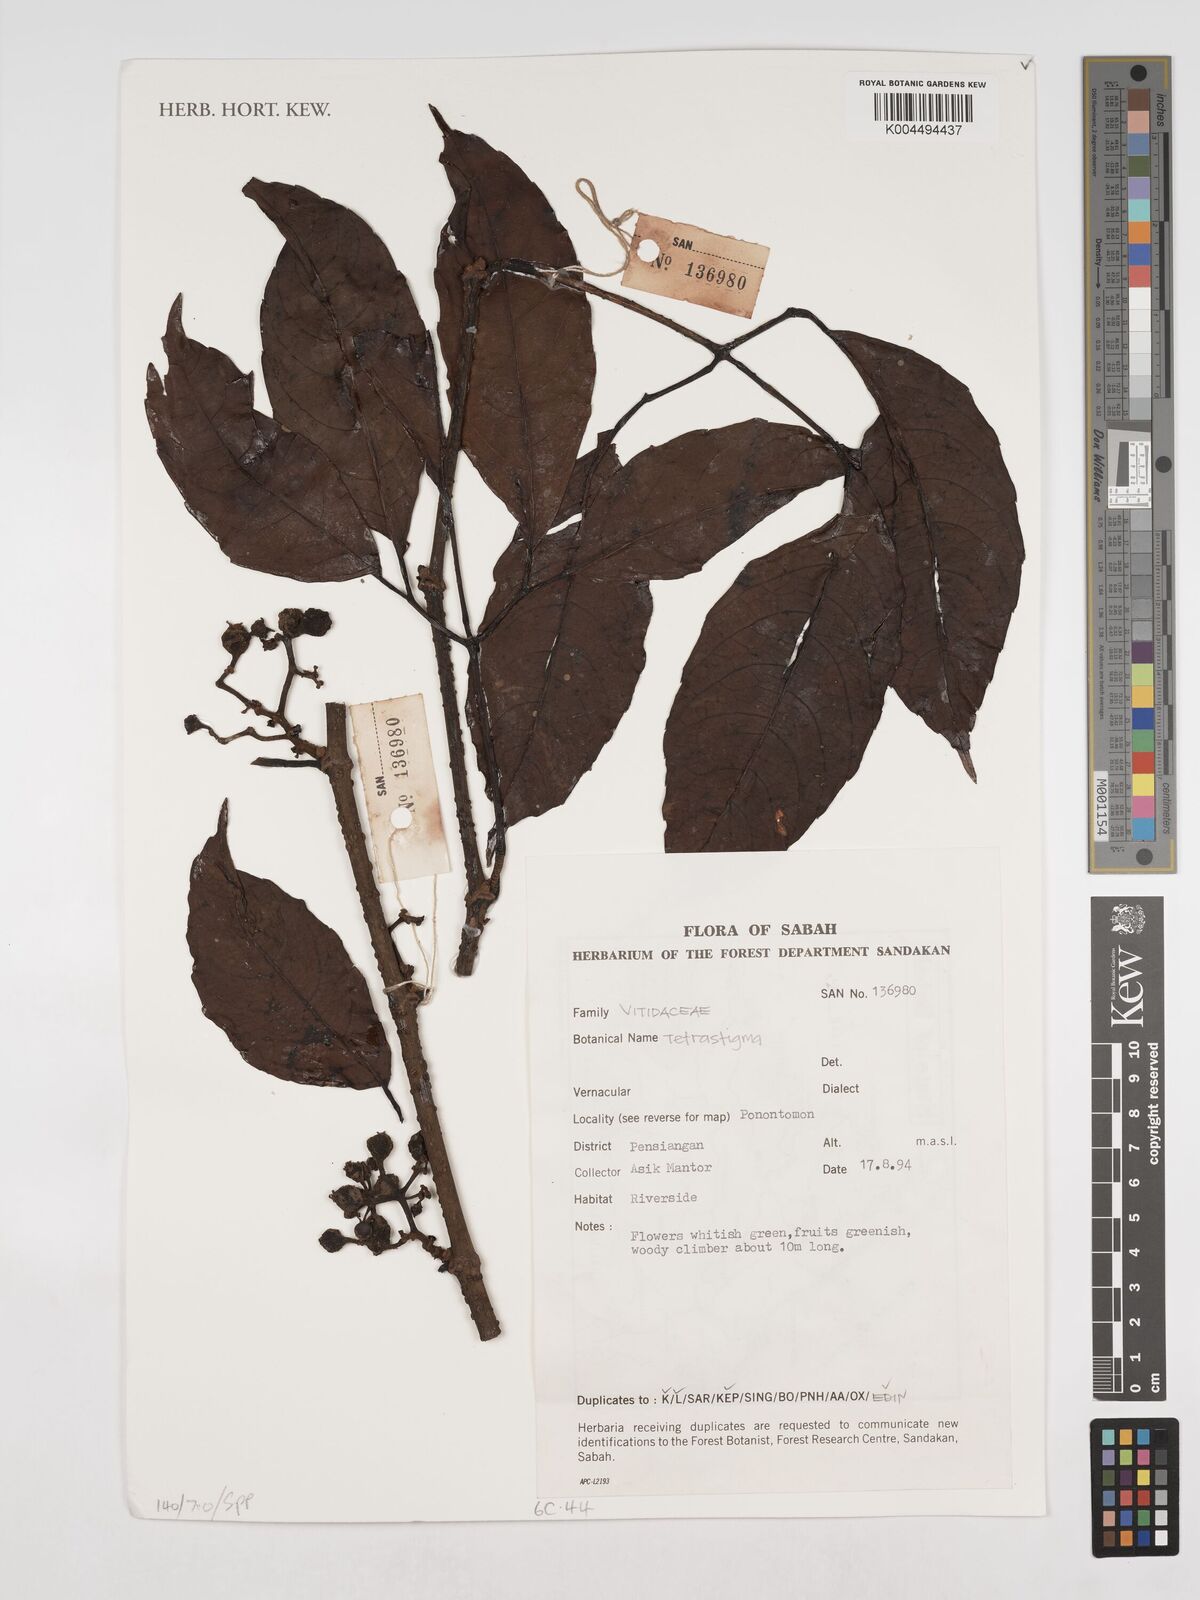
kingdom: Plantae
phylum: Tracheophyta
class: Magnoliopsida
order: Vitales
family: Vitaceae
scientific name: Vitaceae
